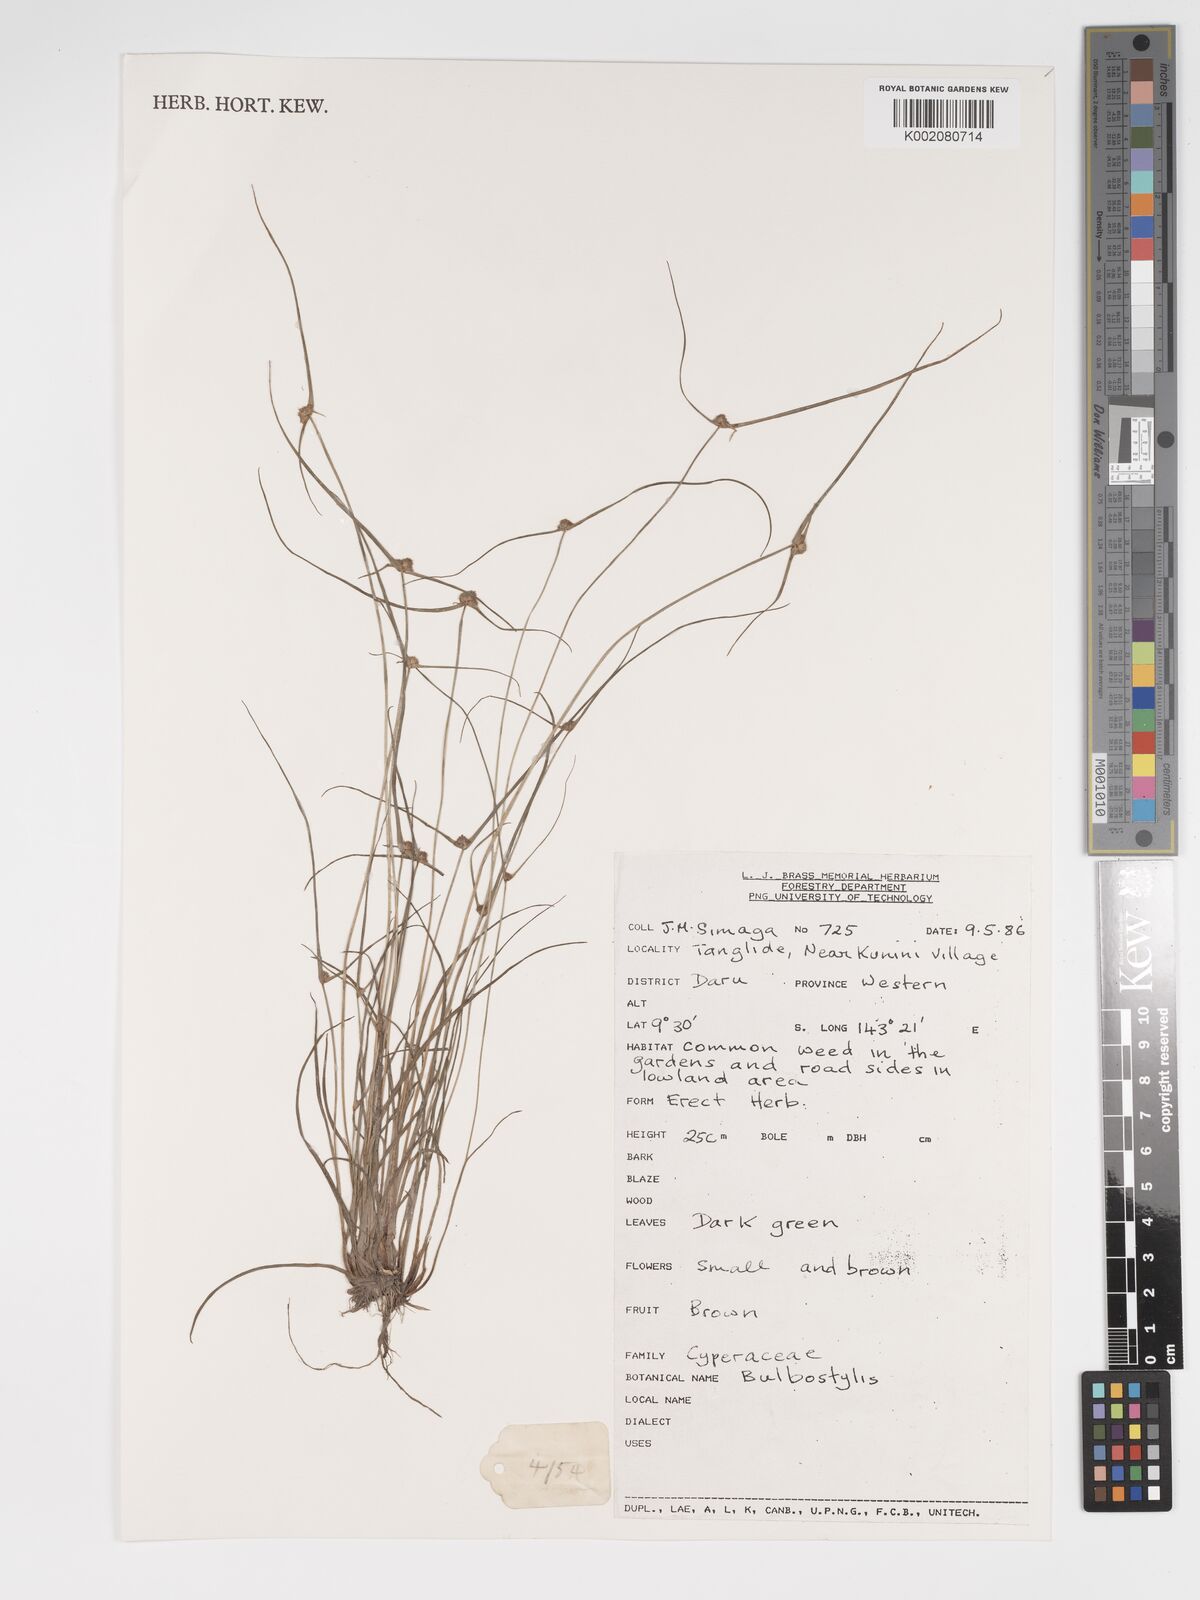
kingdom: Plantae
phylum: Tracheophyta
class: Magnoliopsida
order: Asterales
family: Asteraceae
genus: Bulbostylis
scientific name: Bulbostylis
